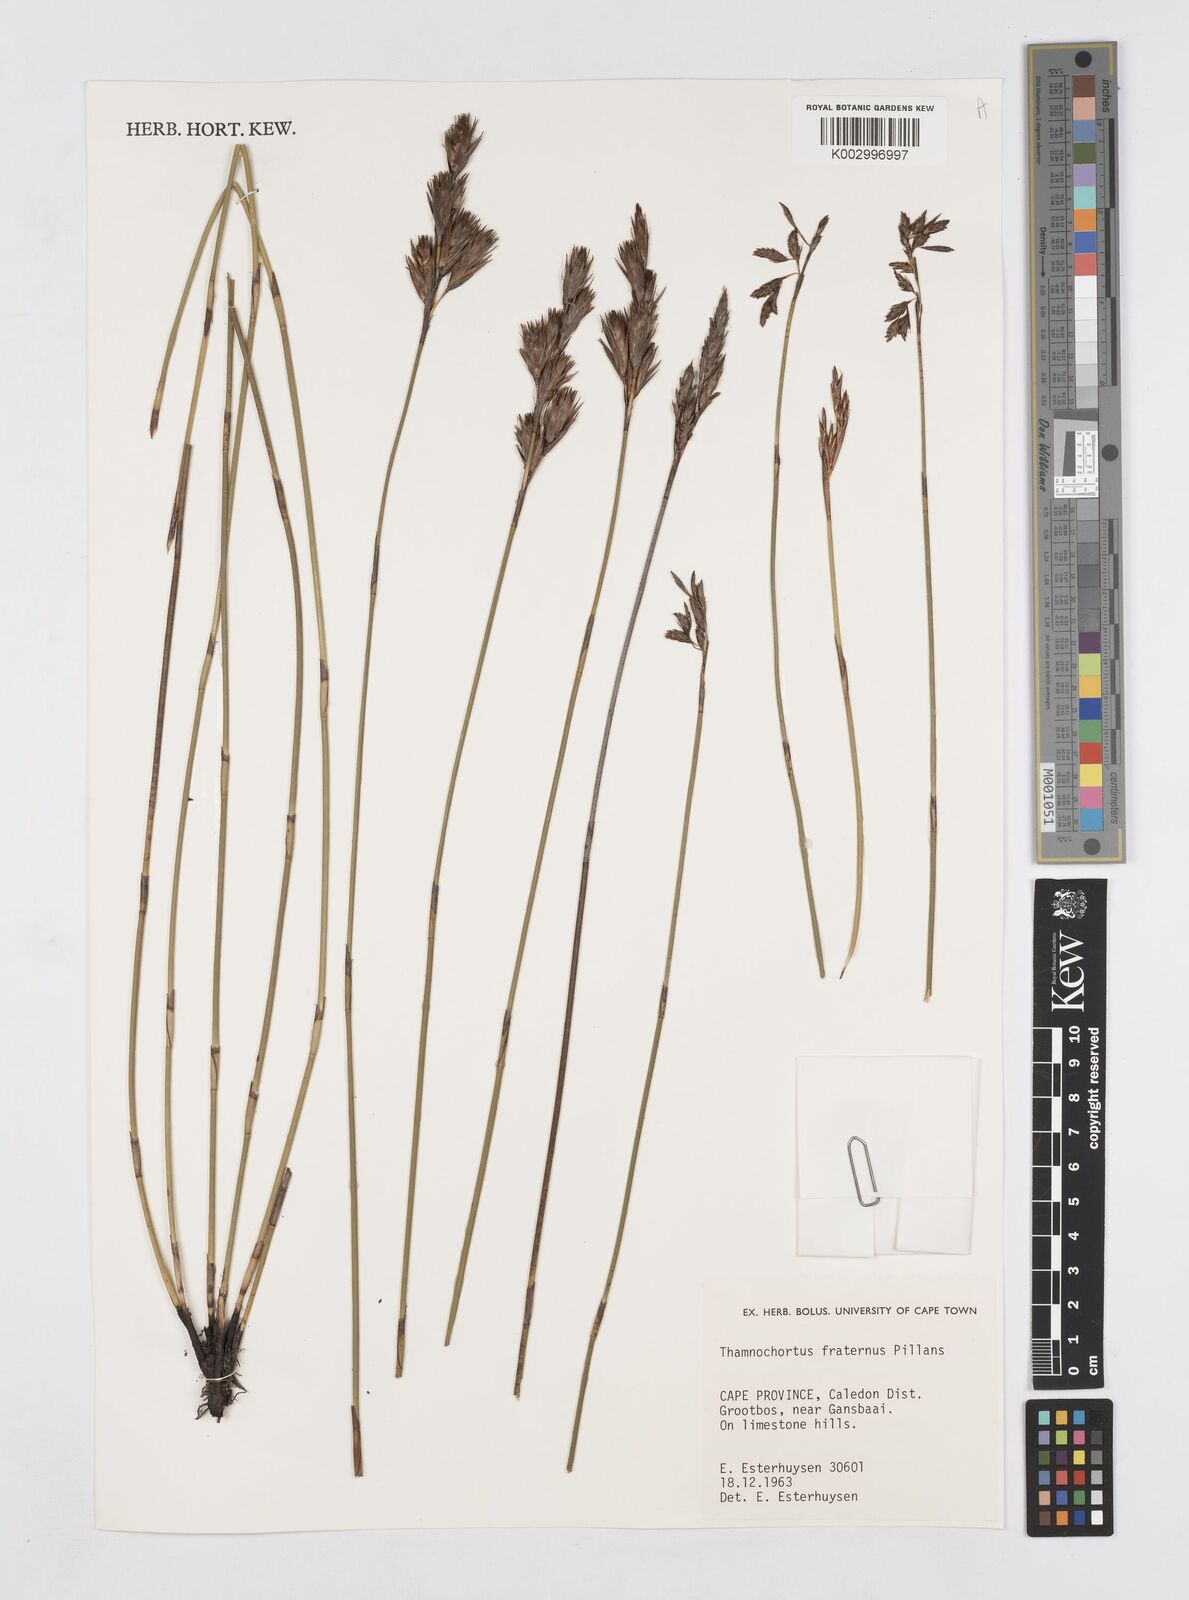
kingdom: Plantae
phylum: Tracheophyta
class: Liliopsida
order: Poales
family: Restionaceae
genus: Thamnochortus
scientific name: Thamnochortus fraternus
